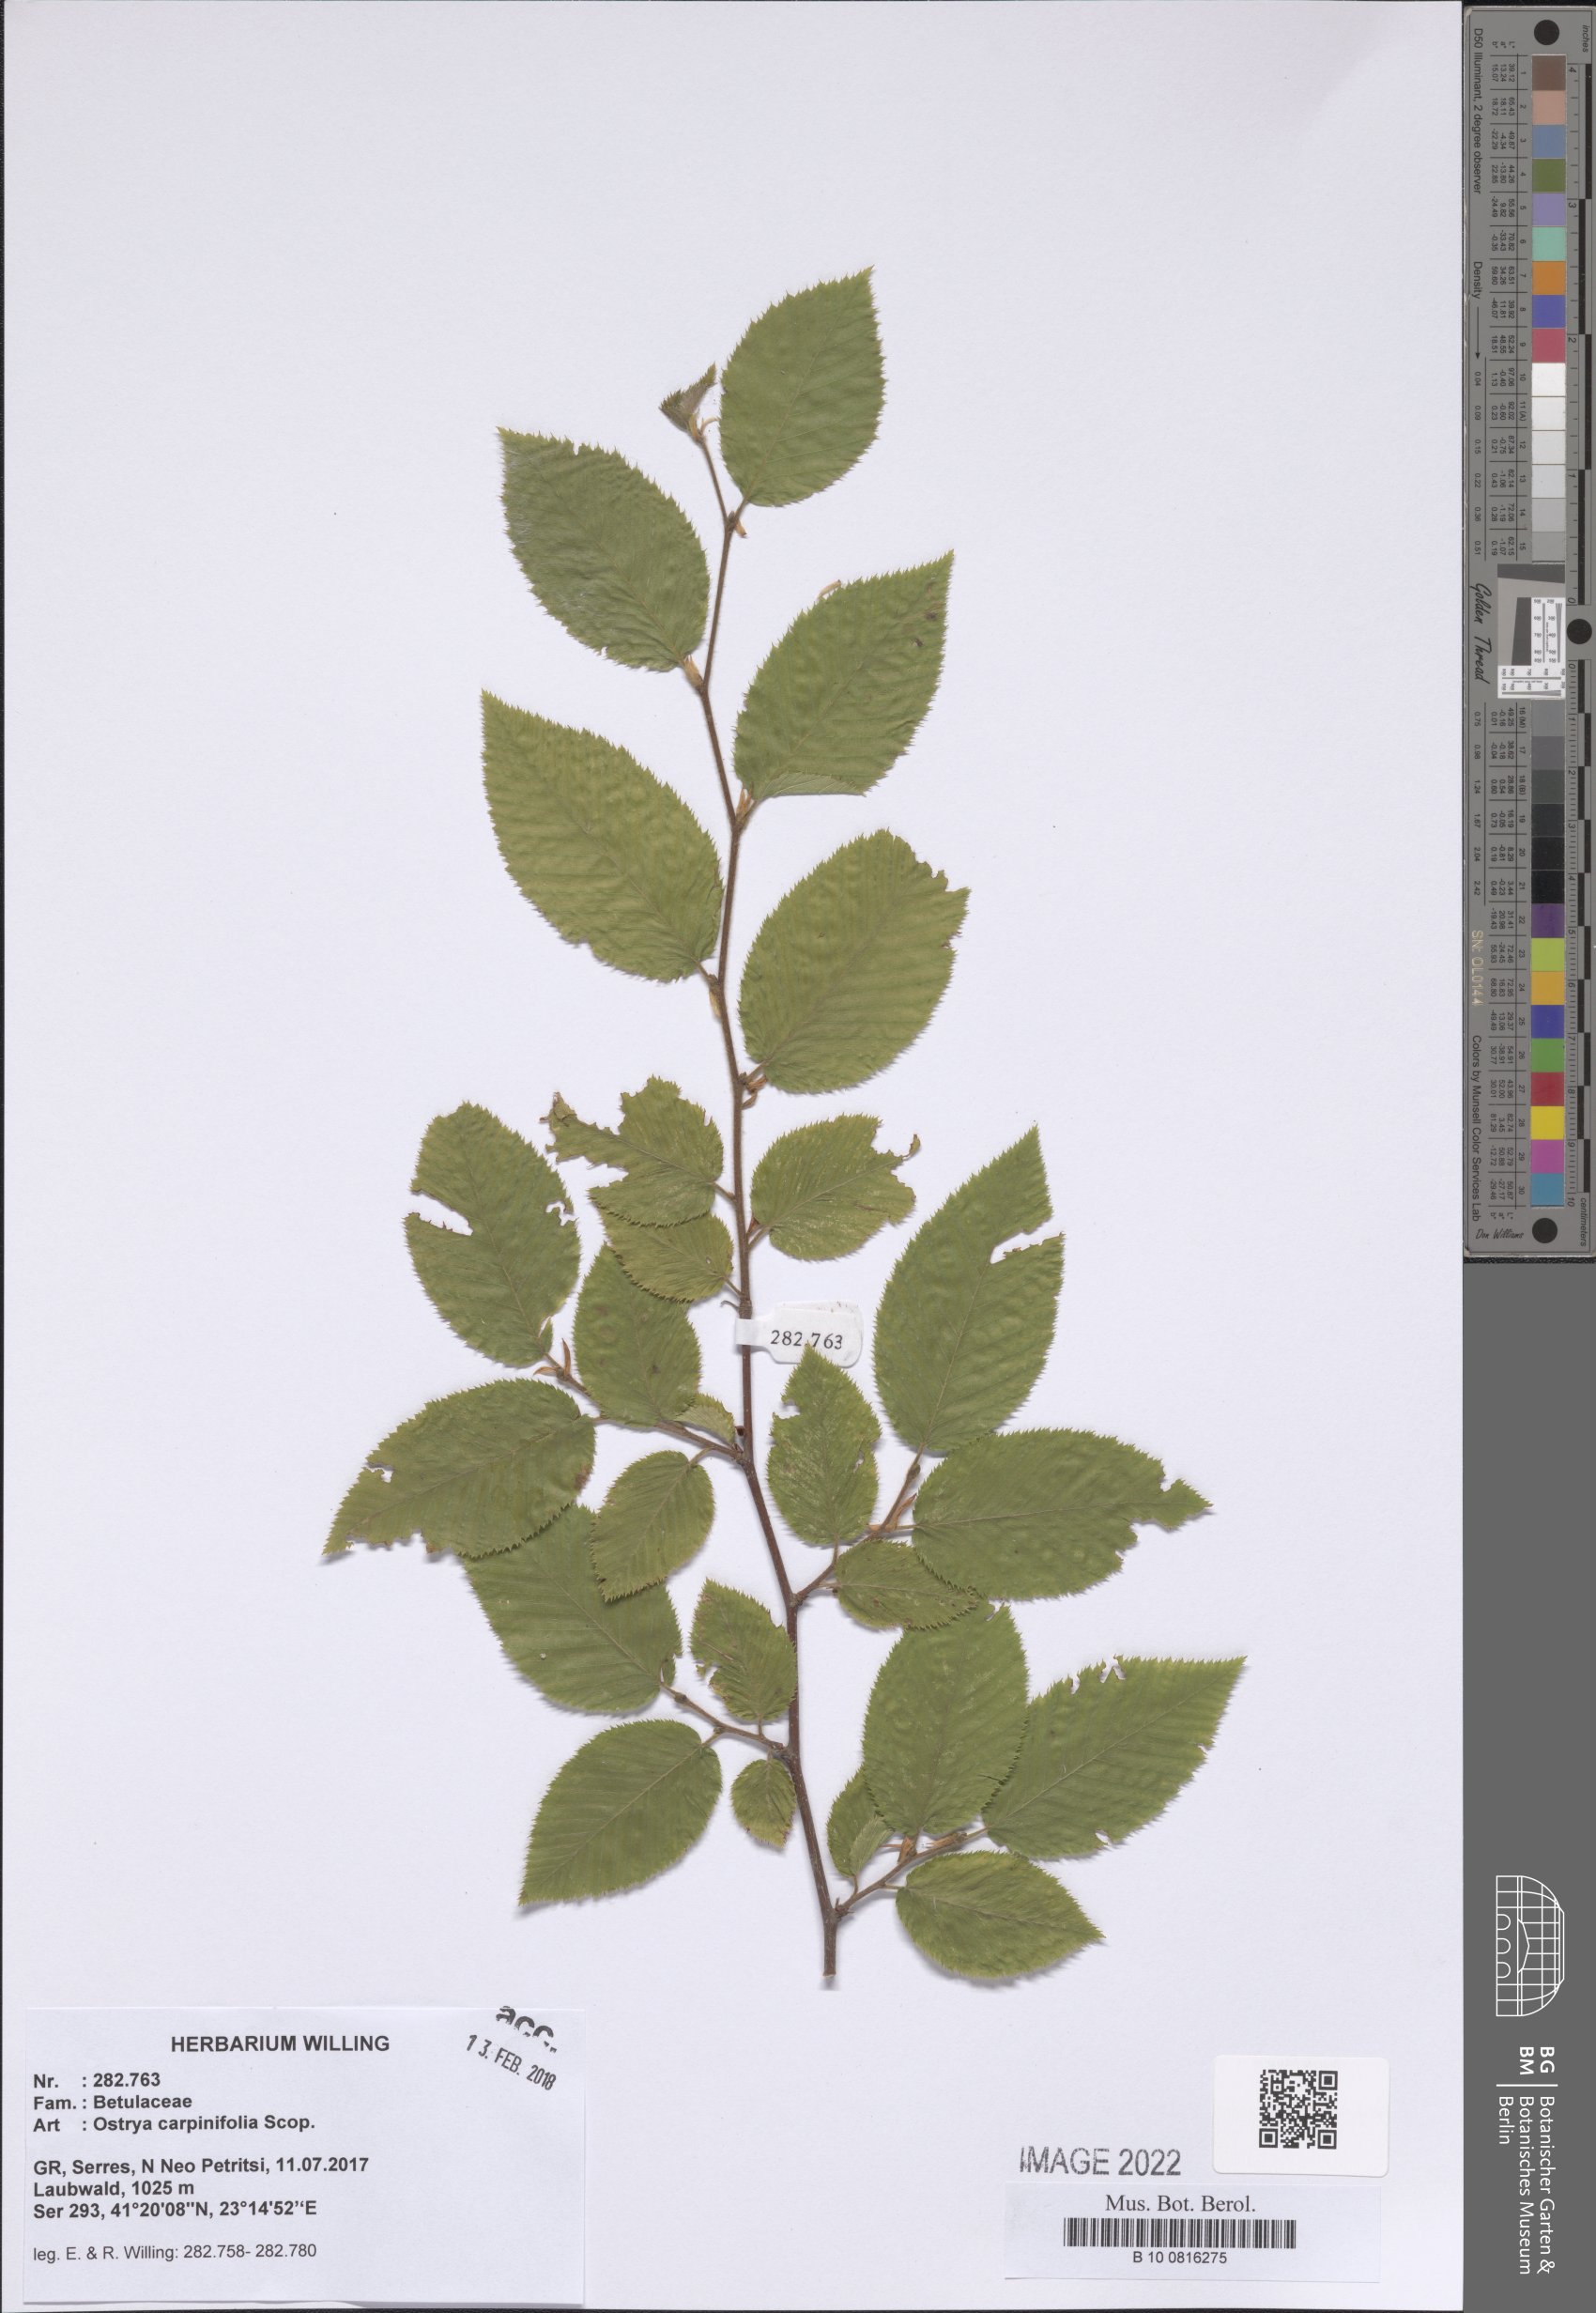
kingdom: Plantae
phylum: Tracheophyta
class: Magnoliopsida
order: Fagales
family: Betulaceae
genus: Ostrya
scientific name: Ostrya carpinifolia
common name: European hop-hornbeam
